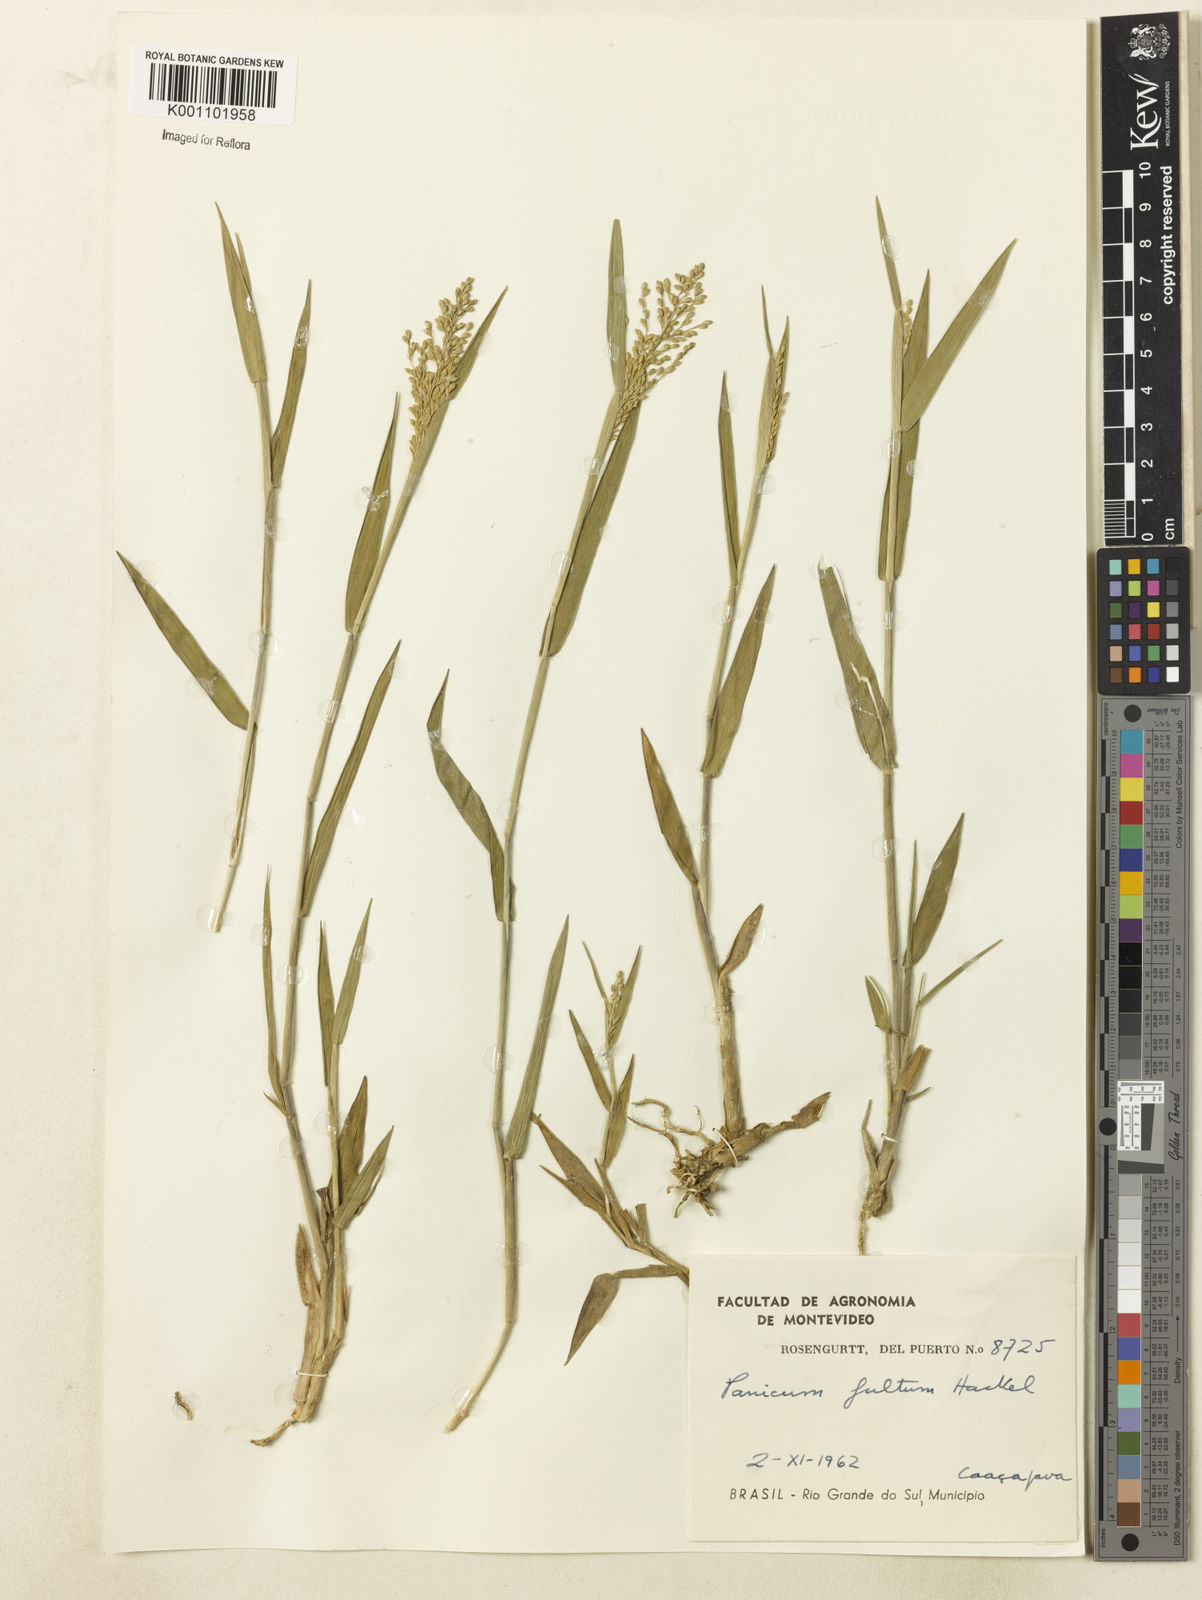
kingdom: Plantae
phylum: Tracheophyta
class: Liliopsida
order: Poales
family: Poaceae
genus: Dichanthelium
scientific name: Dichanthelium sabulorum
